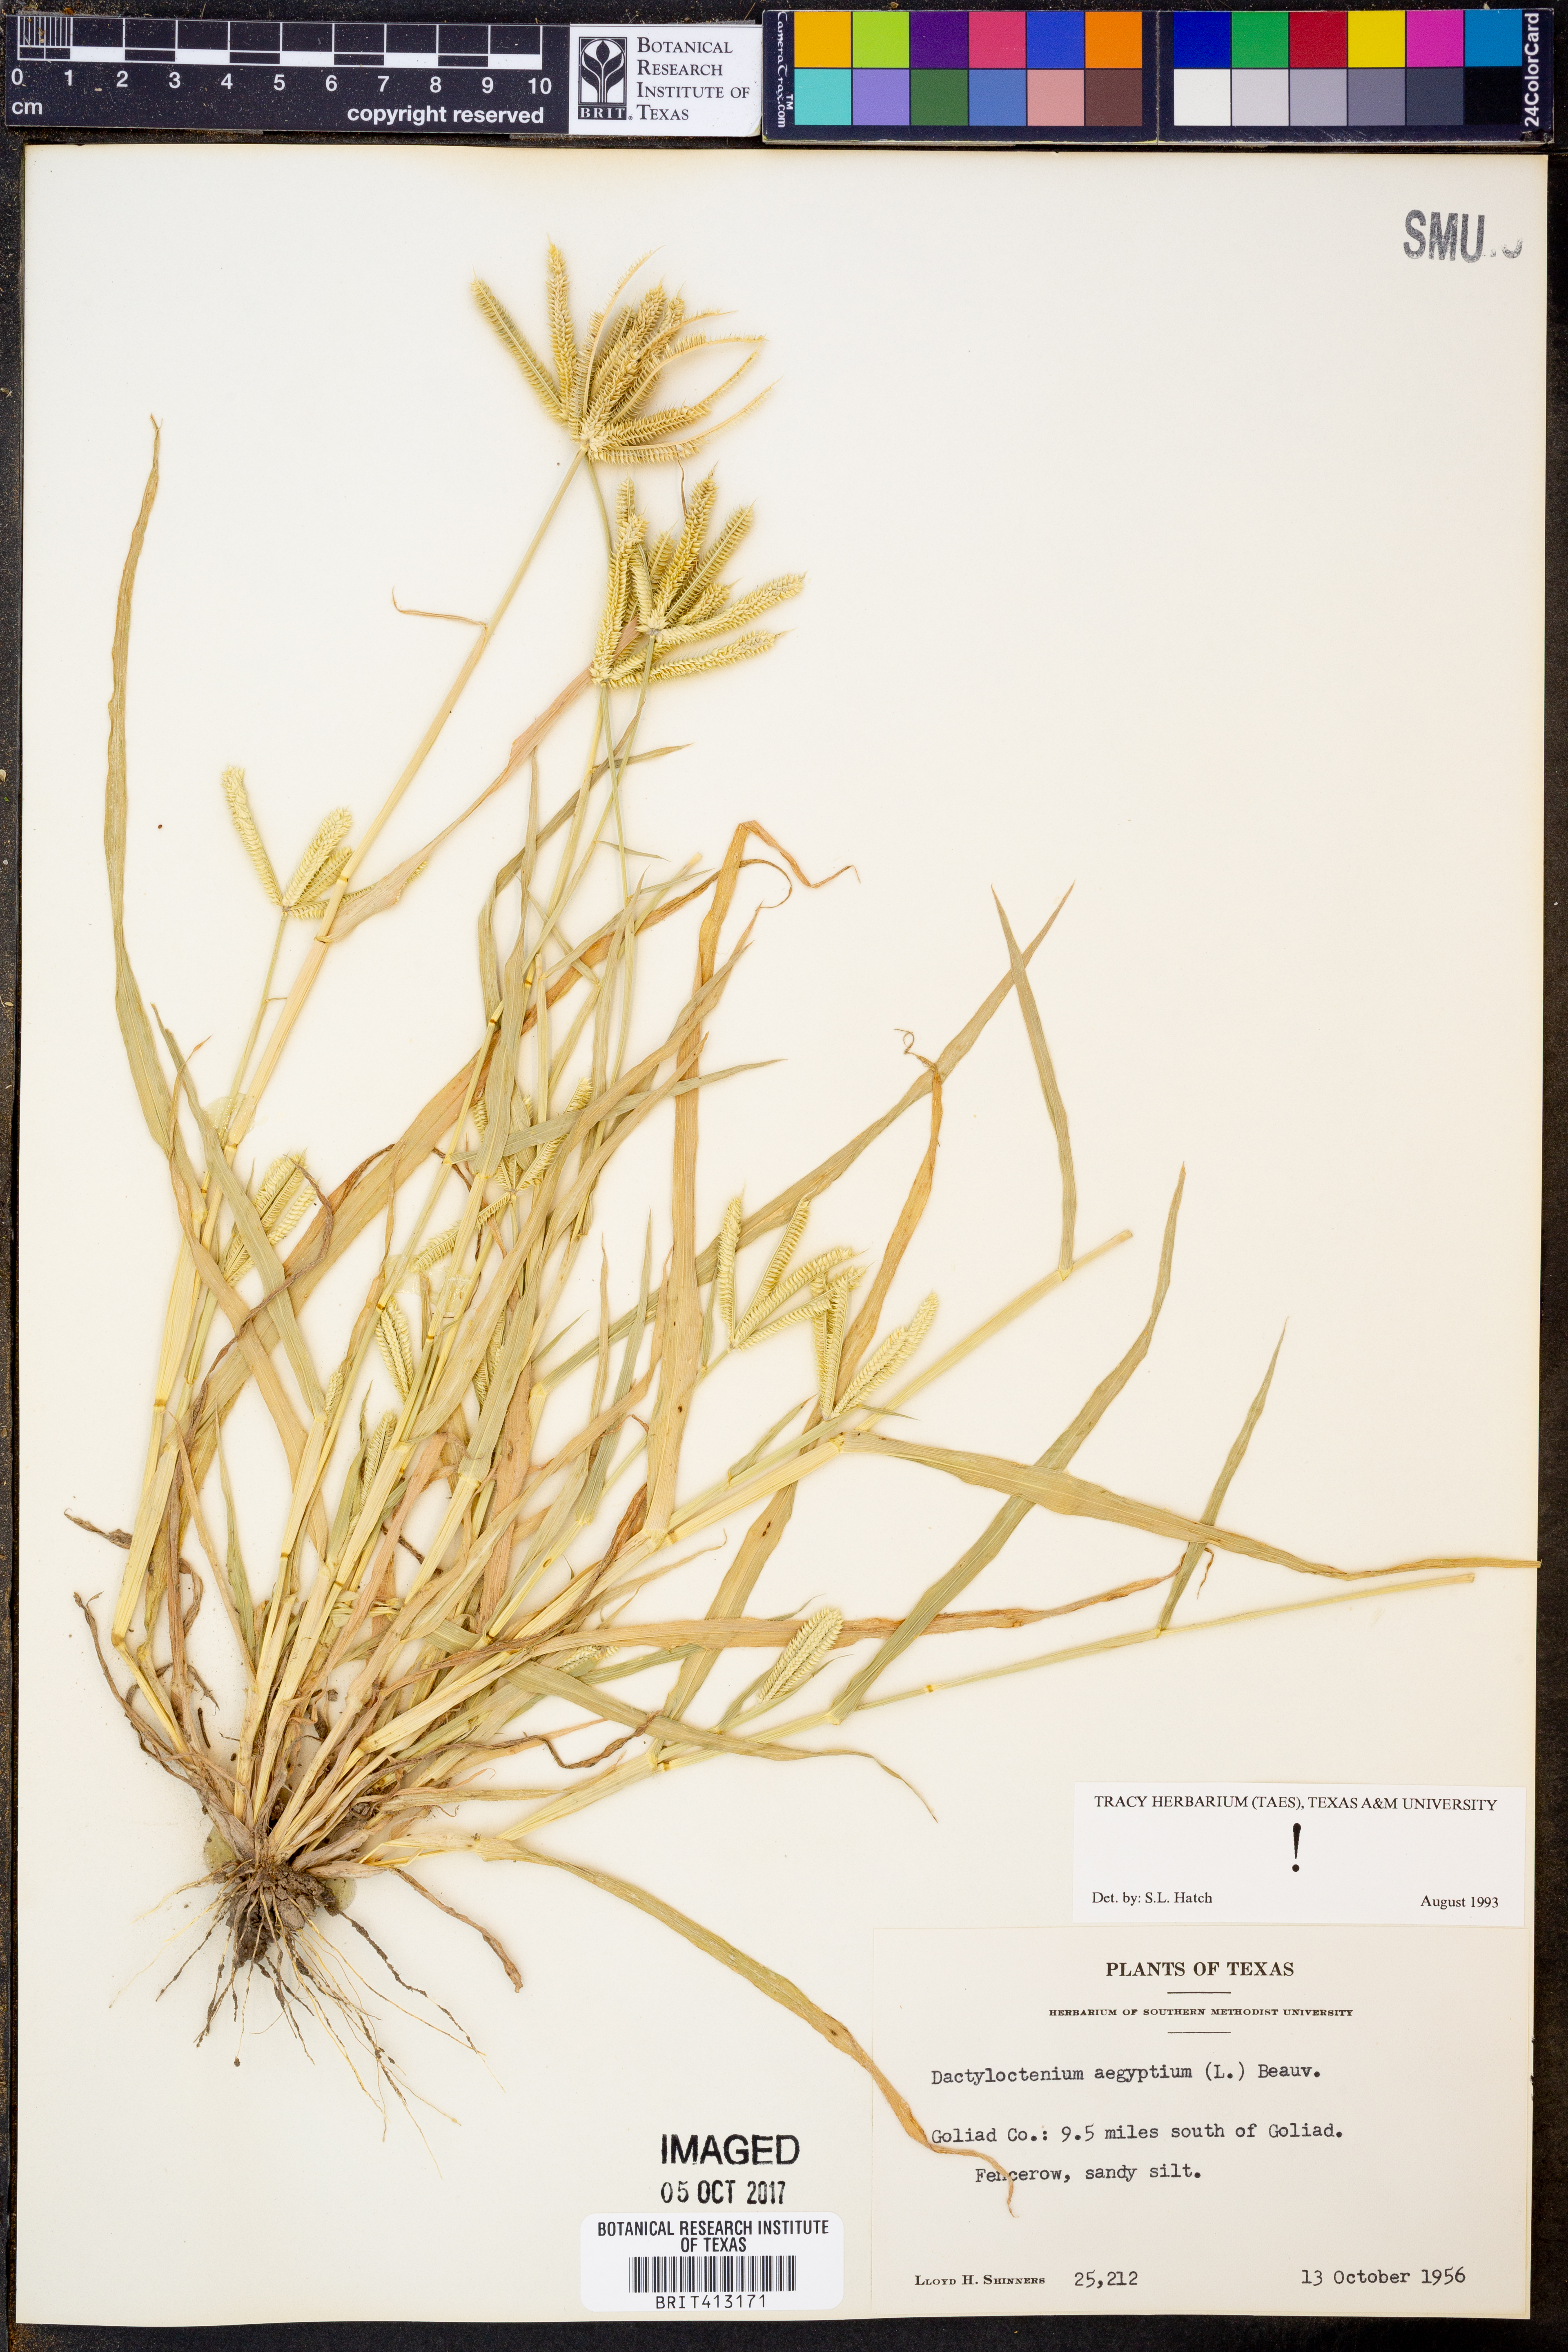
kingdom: Plantae
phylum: Tracheophyta
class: Liliopsida
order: Poales
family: Poaceae
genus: Dactyloctenium
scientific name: Dactyloctenium aegyptium
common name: Egyptian grass
